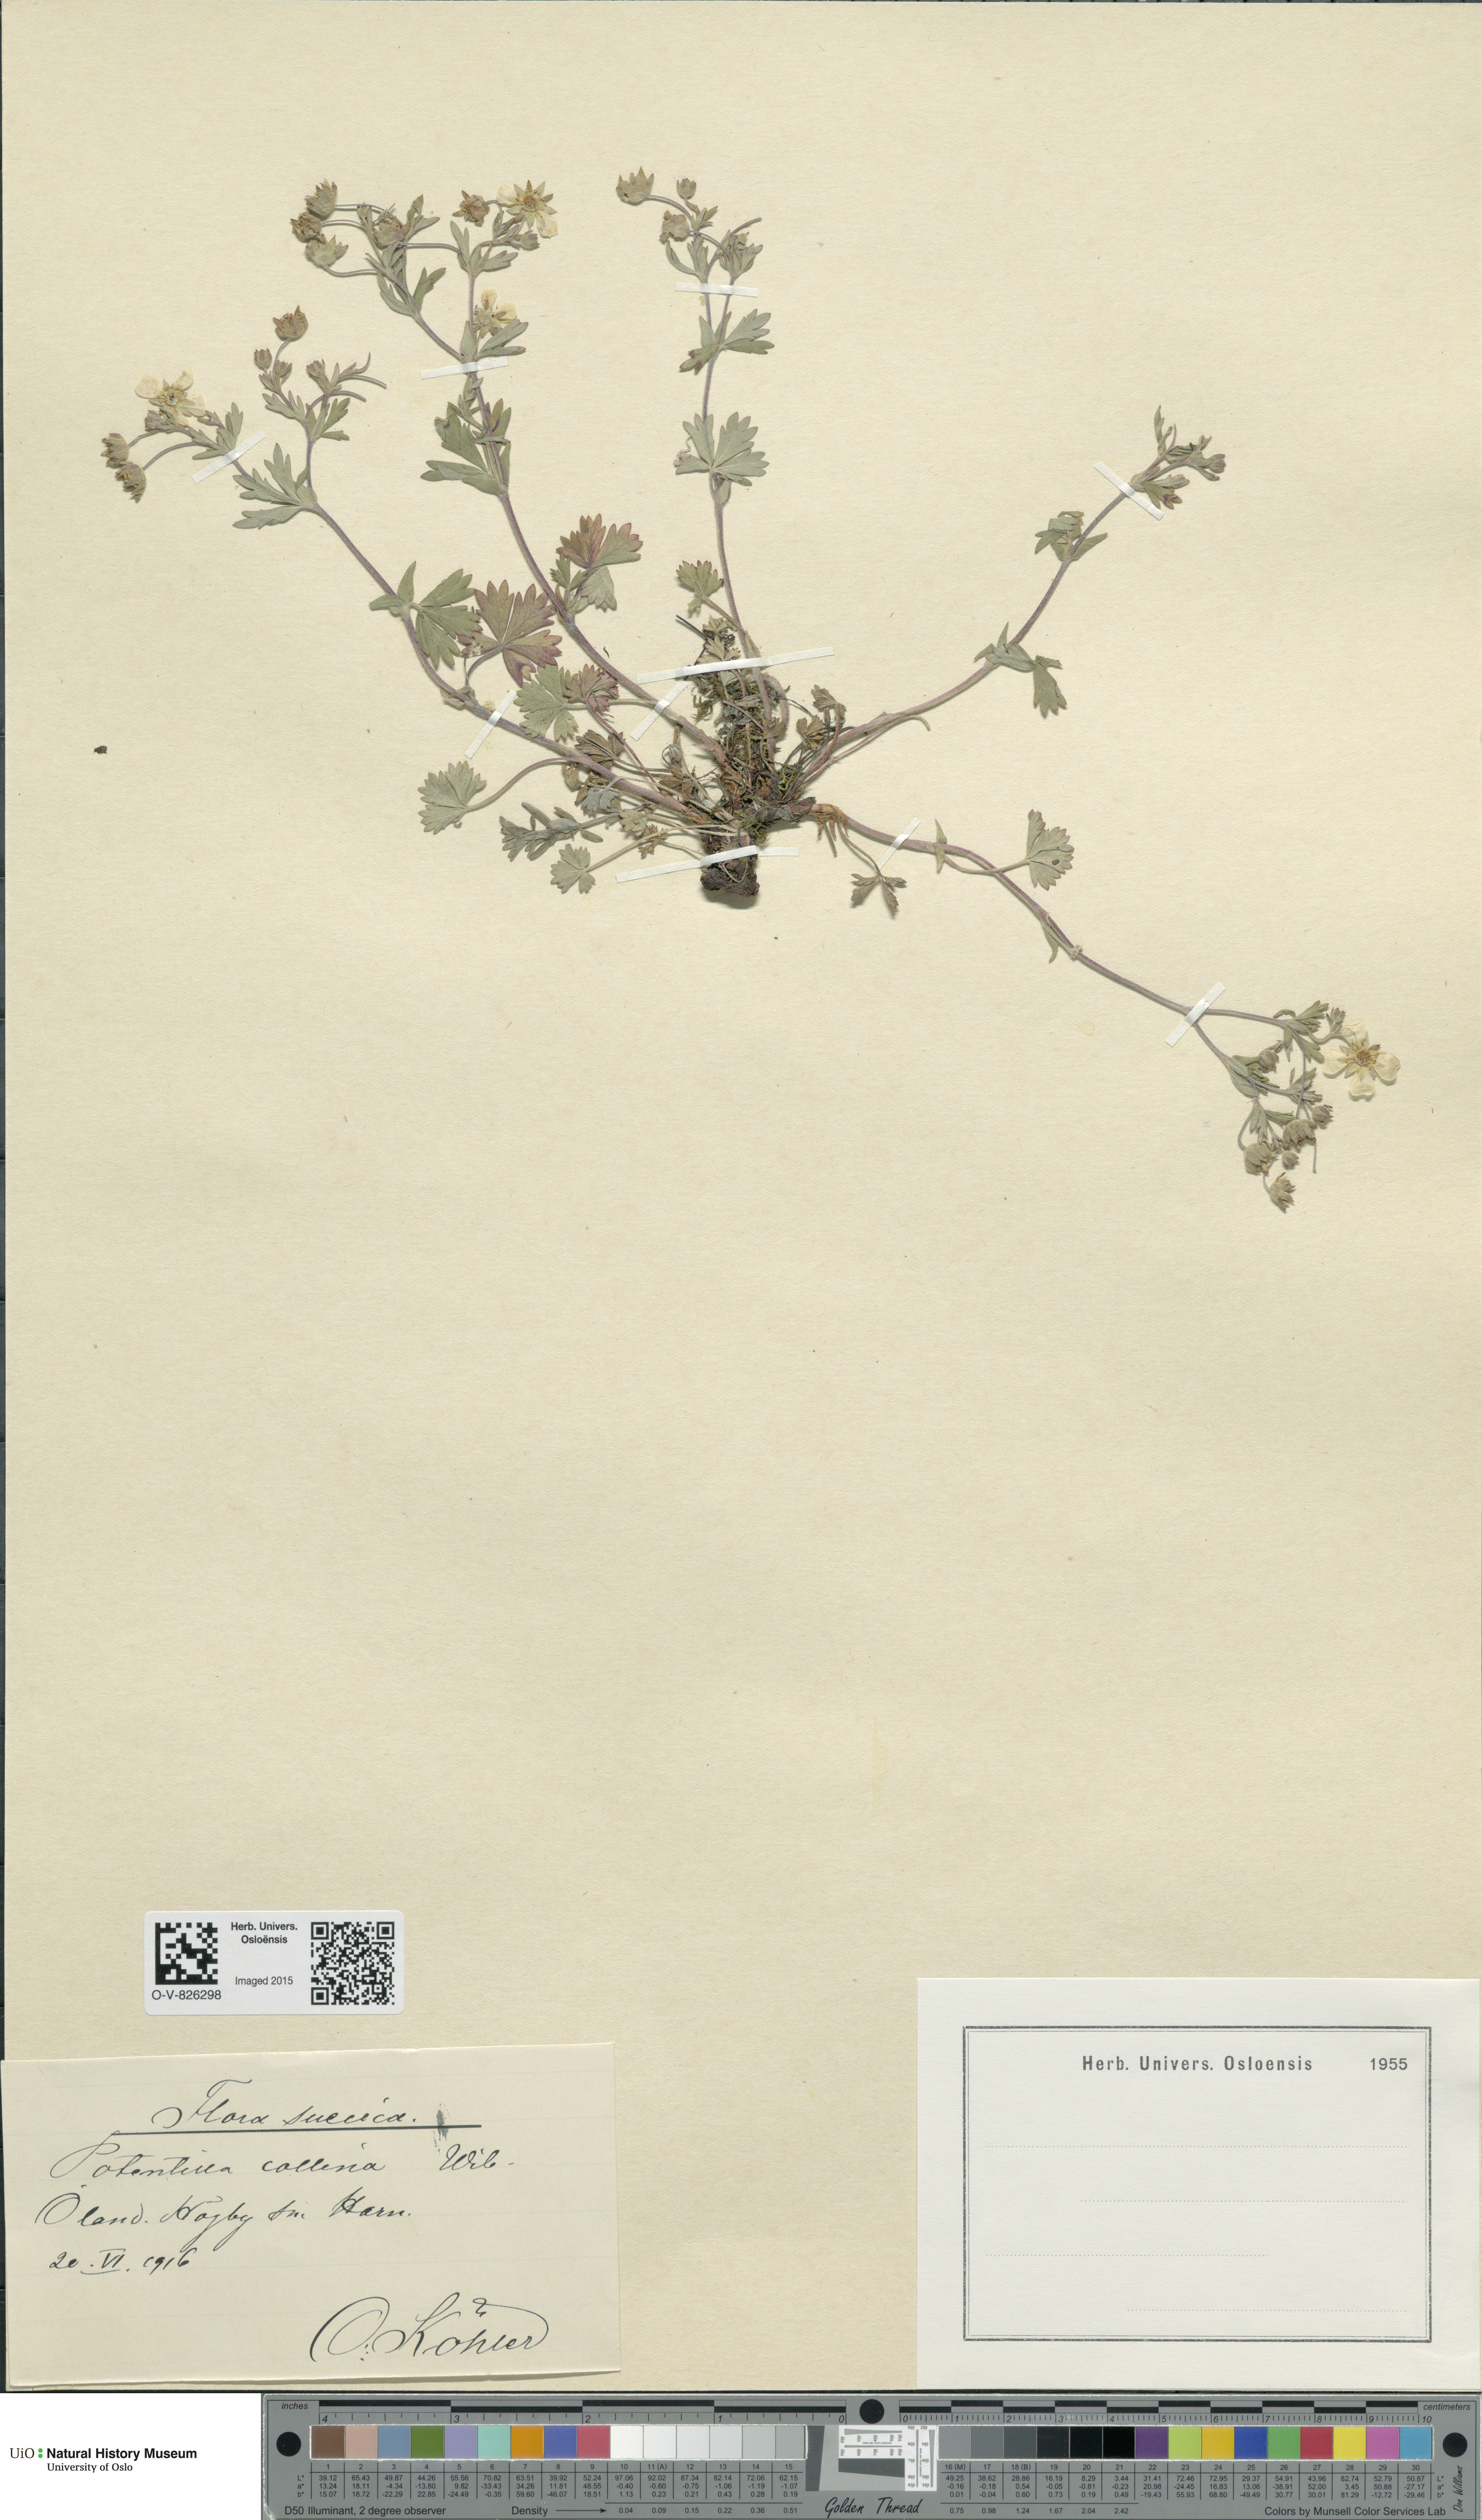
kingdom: Plantae
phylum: Tracheophyta
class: Magnoliopsida
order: Rosales
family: Rosaceae
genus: Potentilla
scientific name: Potentilla sterneri
